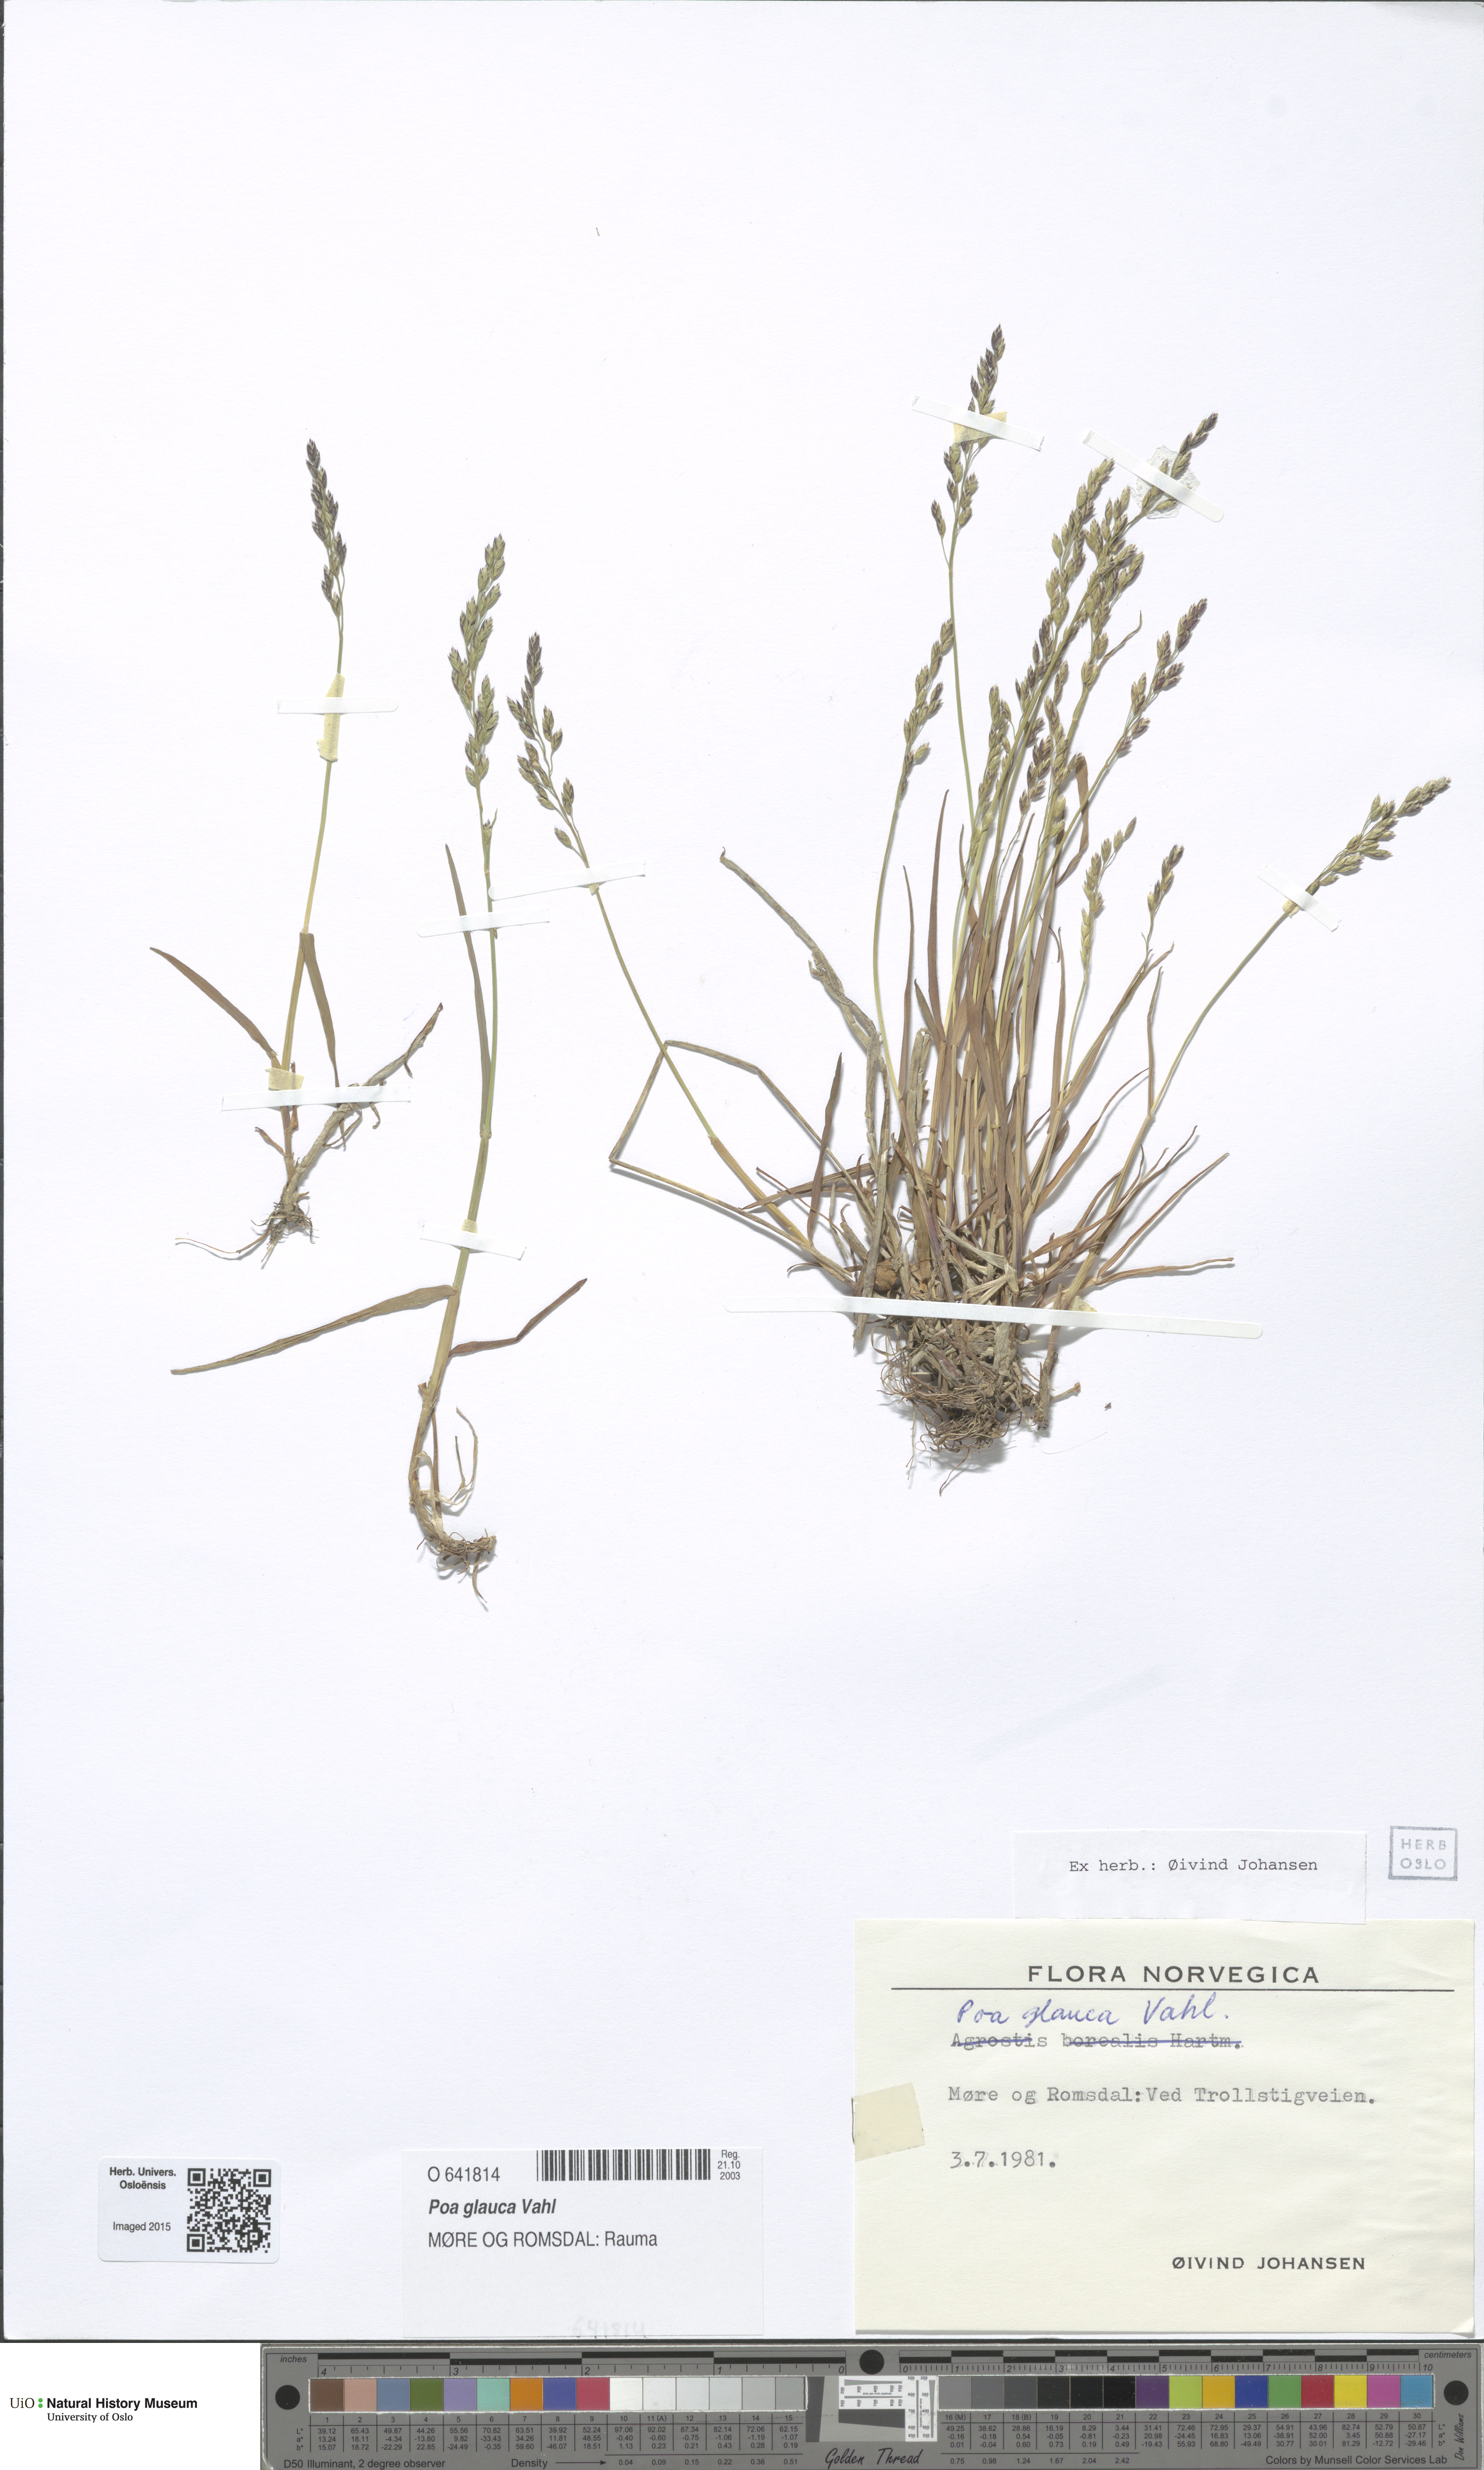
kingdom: Plantae
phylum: Tracheophyta
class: Liliopsida
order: Poales
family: Poaceae
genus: Poa
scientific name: Poa glauca
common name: Glaucous bluegrass
